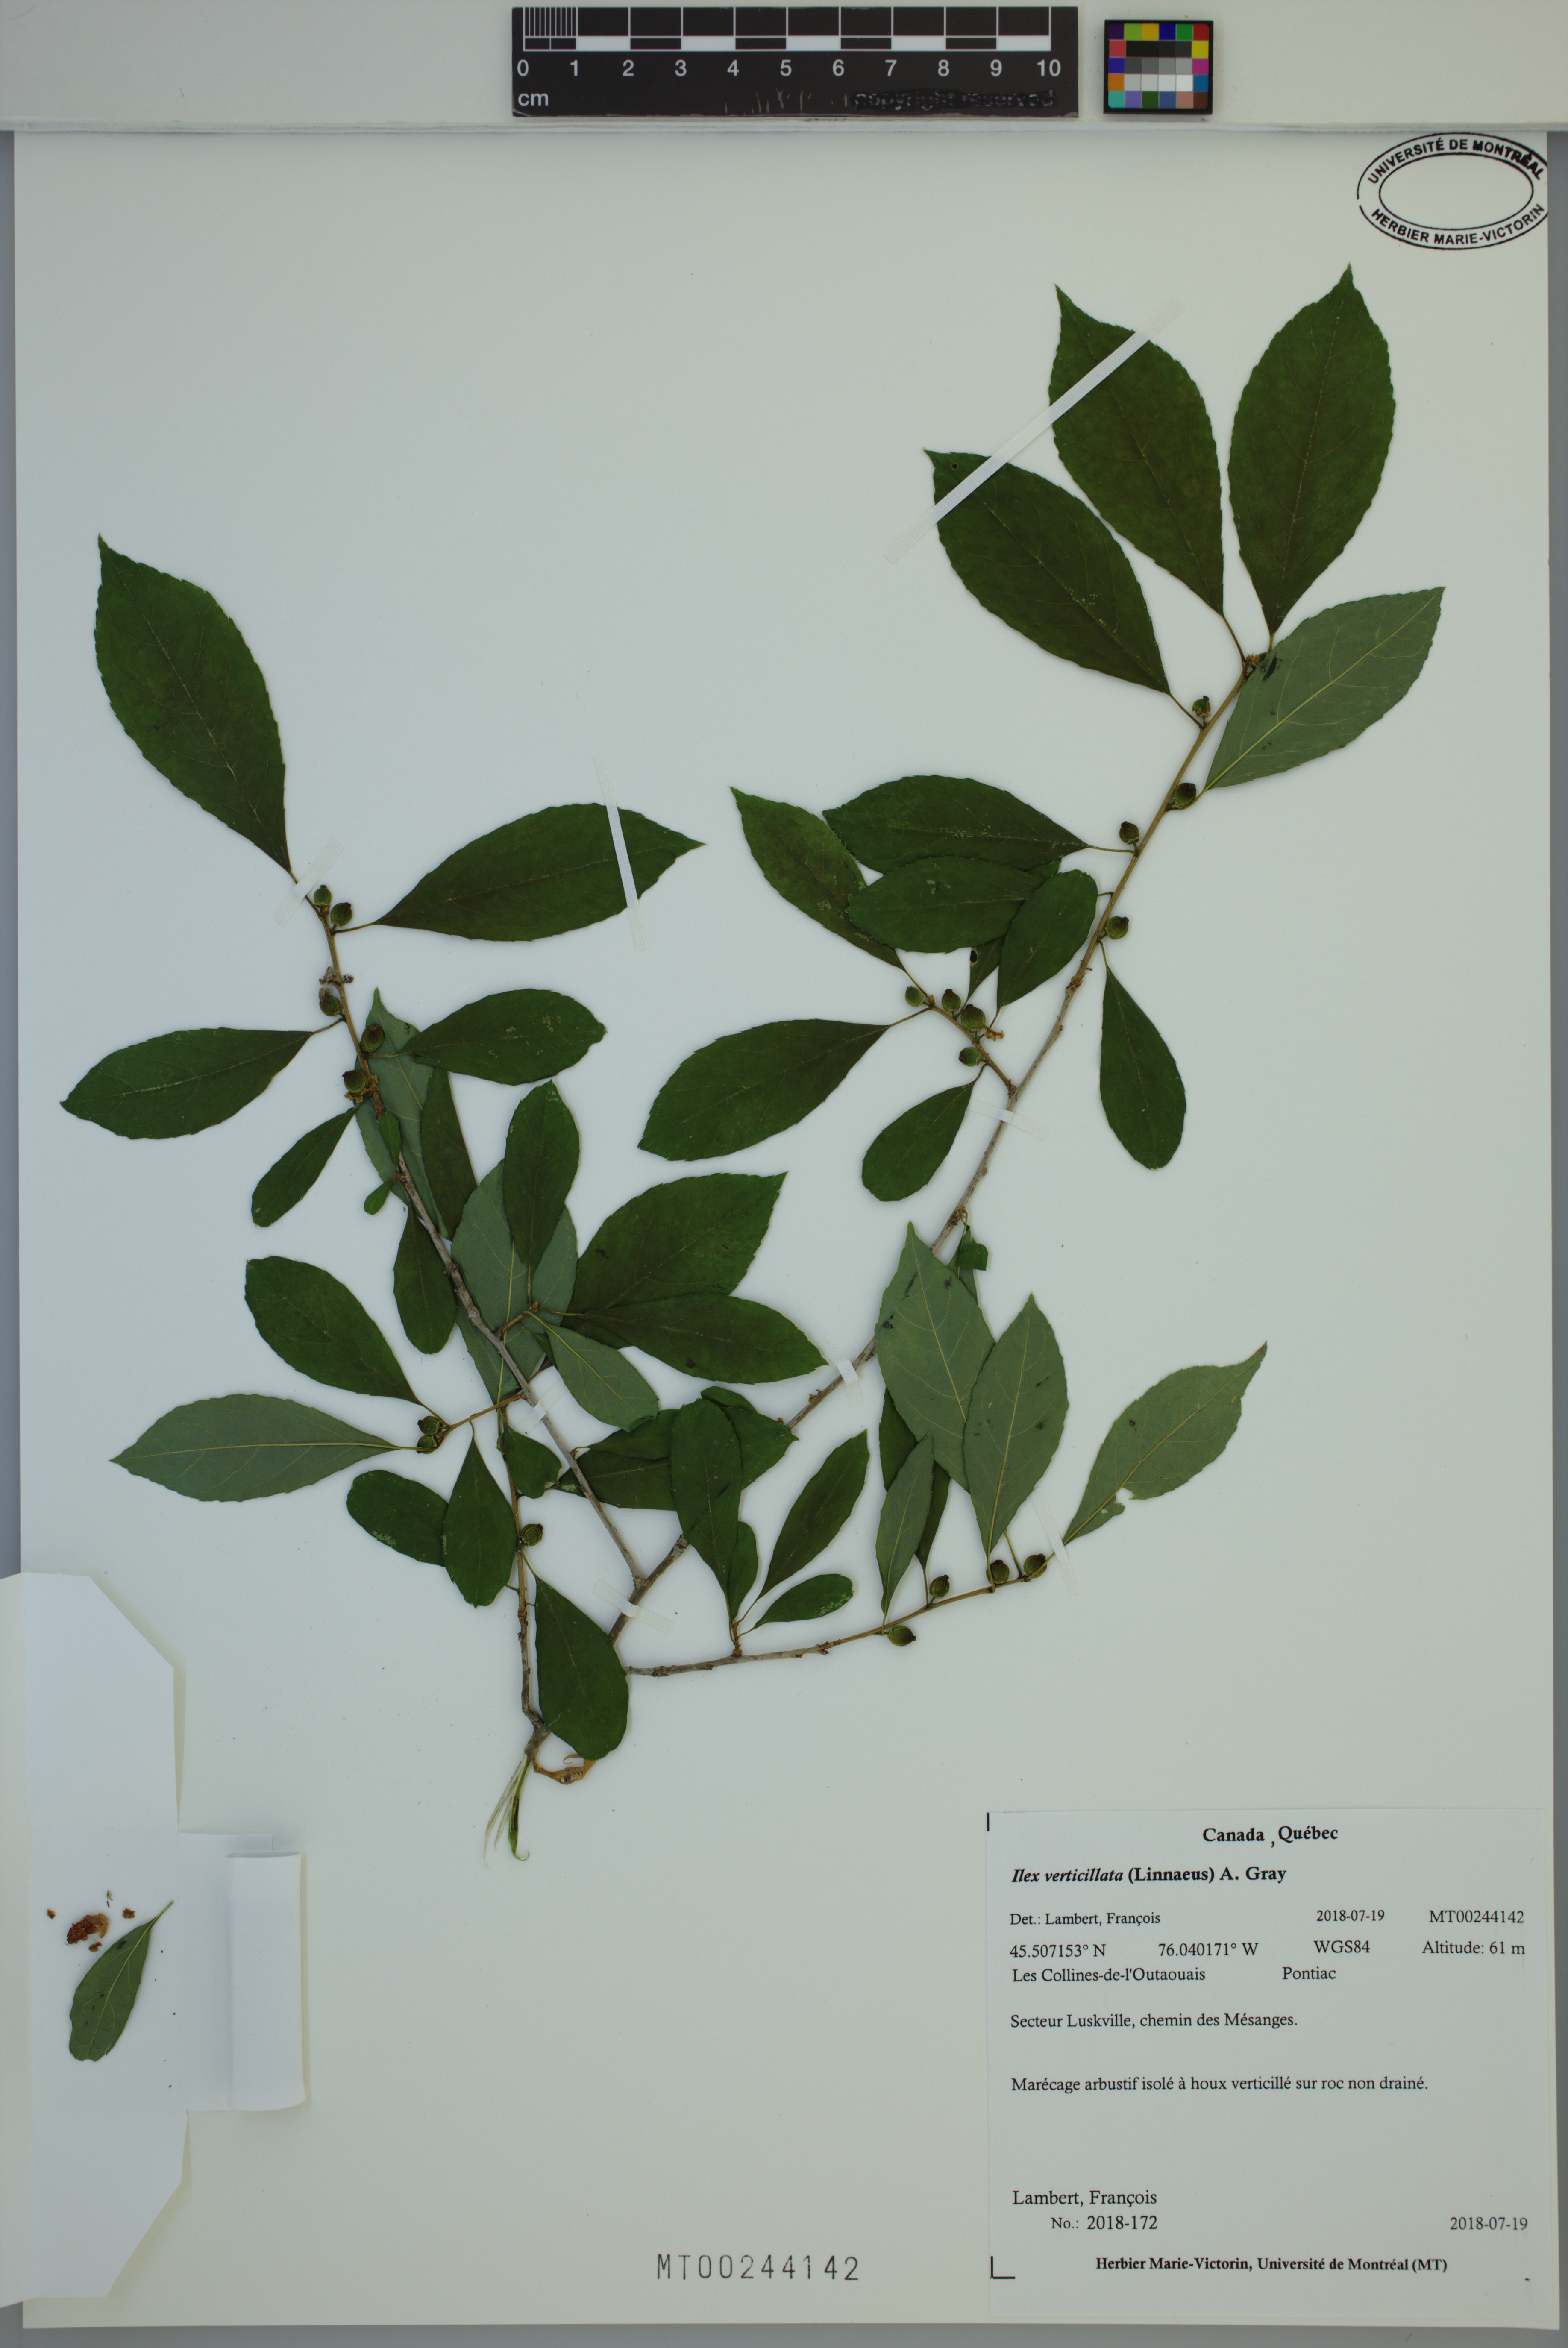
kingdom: Plantae
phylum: Tracheophyta
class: Magnoliopsida
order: Aquifoliales
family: Aquifoliaceae
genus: Ilex
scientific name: Ilex verticillata
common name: Virginia winterberry
